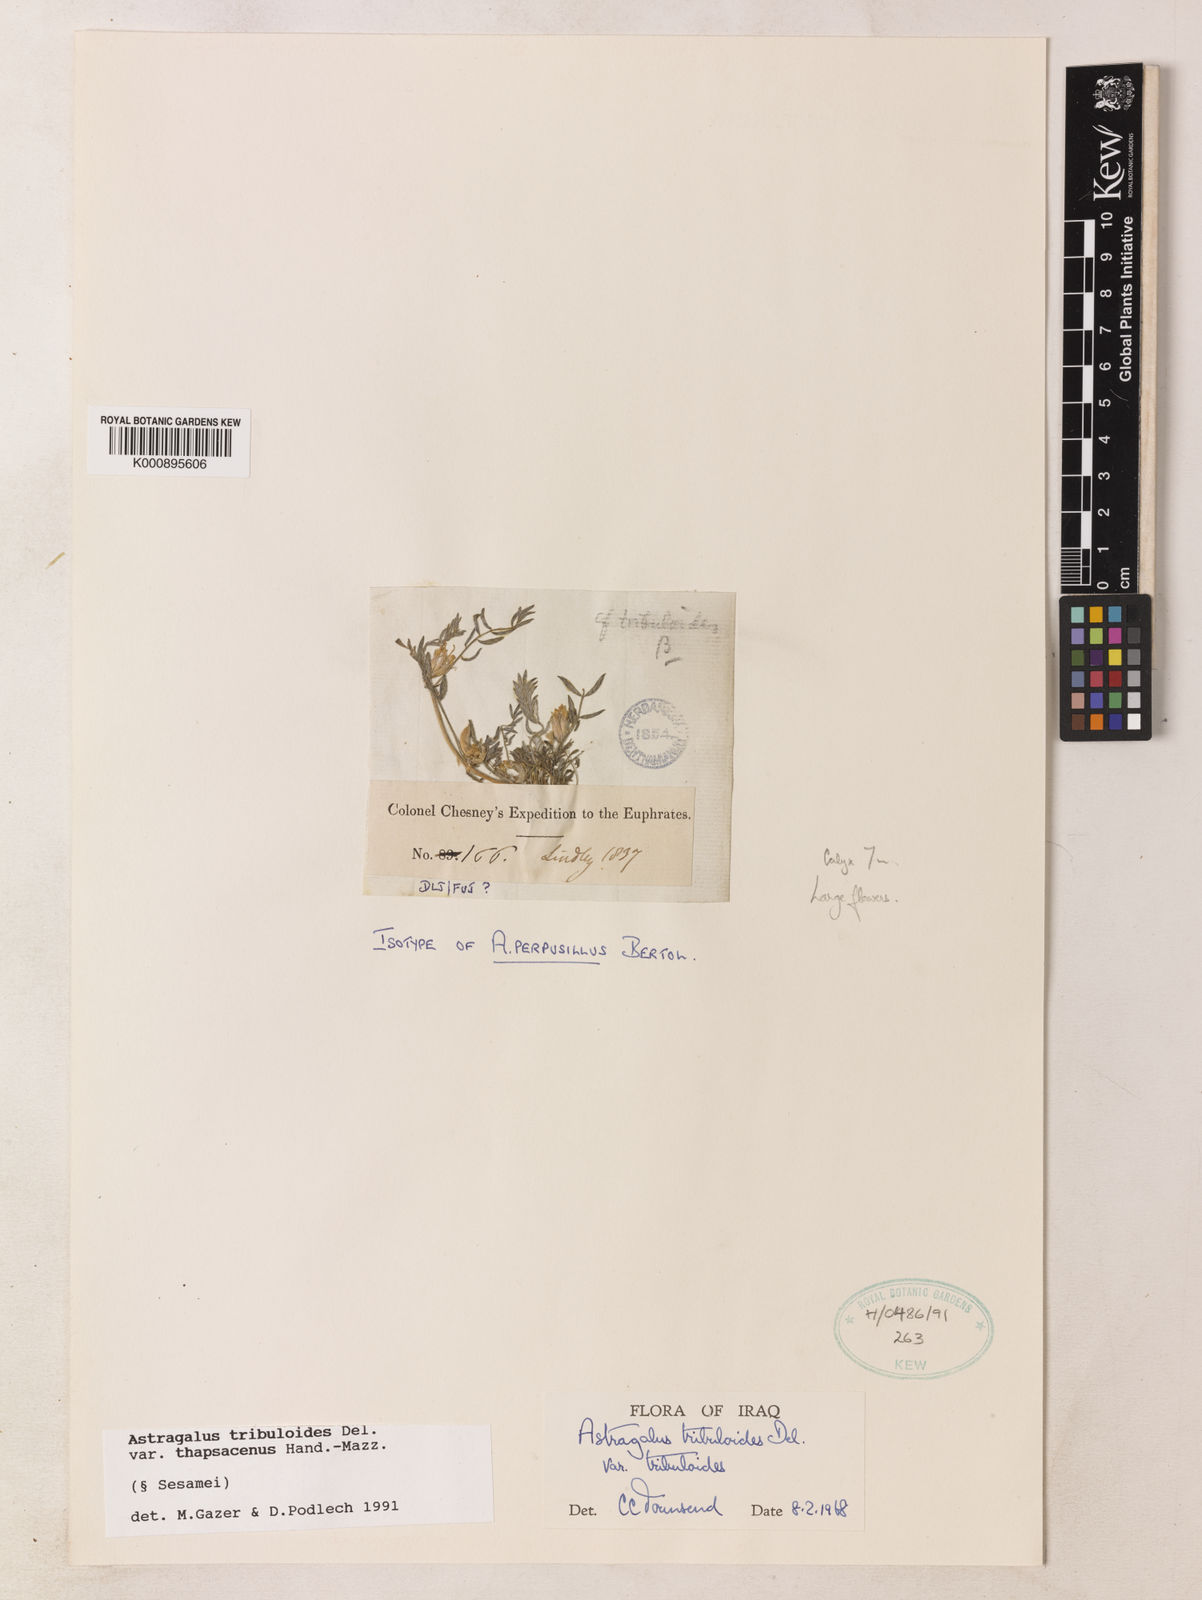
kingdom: Plantae
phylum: Tracheophyta
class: Magnoliopsida
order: Fabales
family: Fabaceae
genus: Astragalus
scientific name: Astragalus tribuloides
